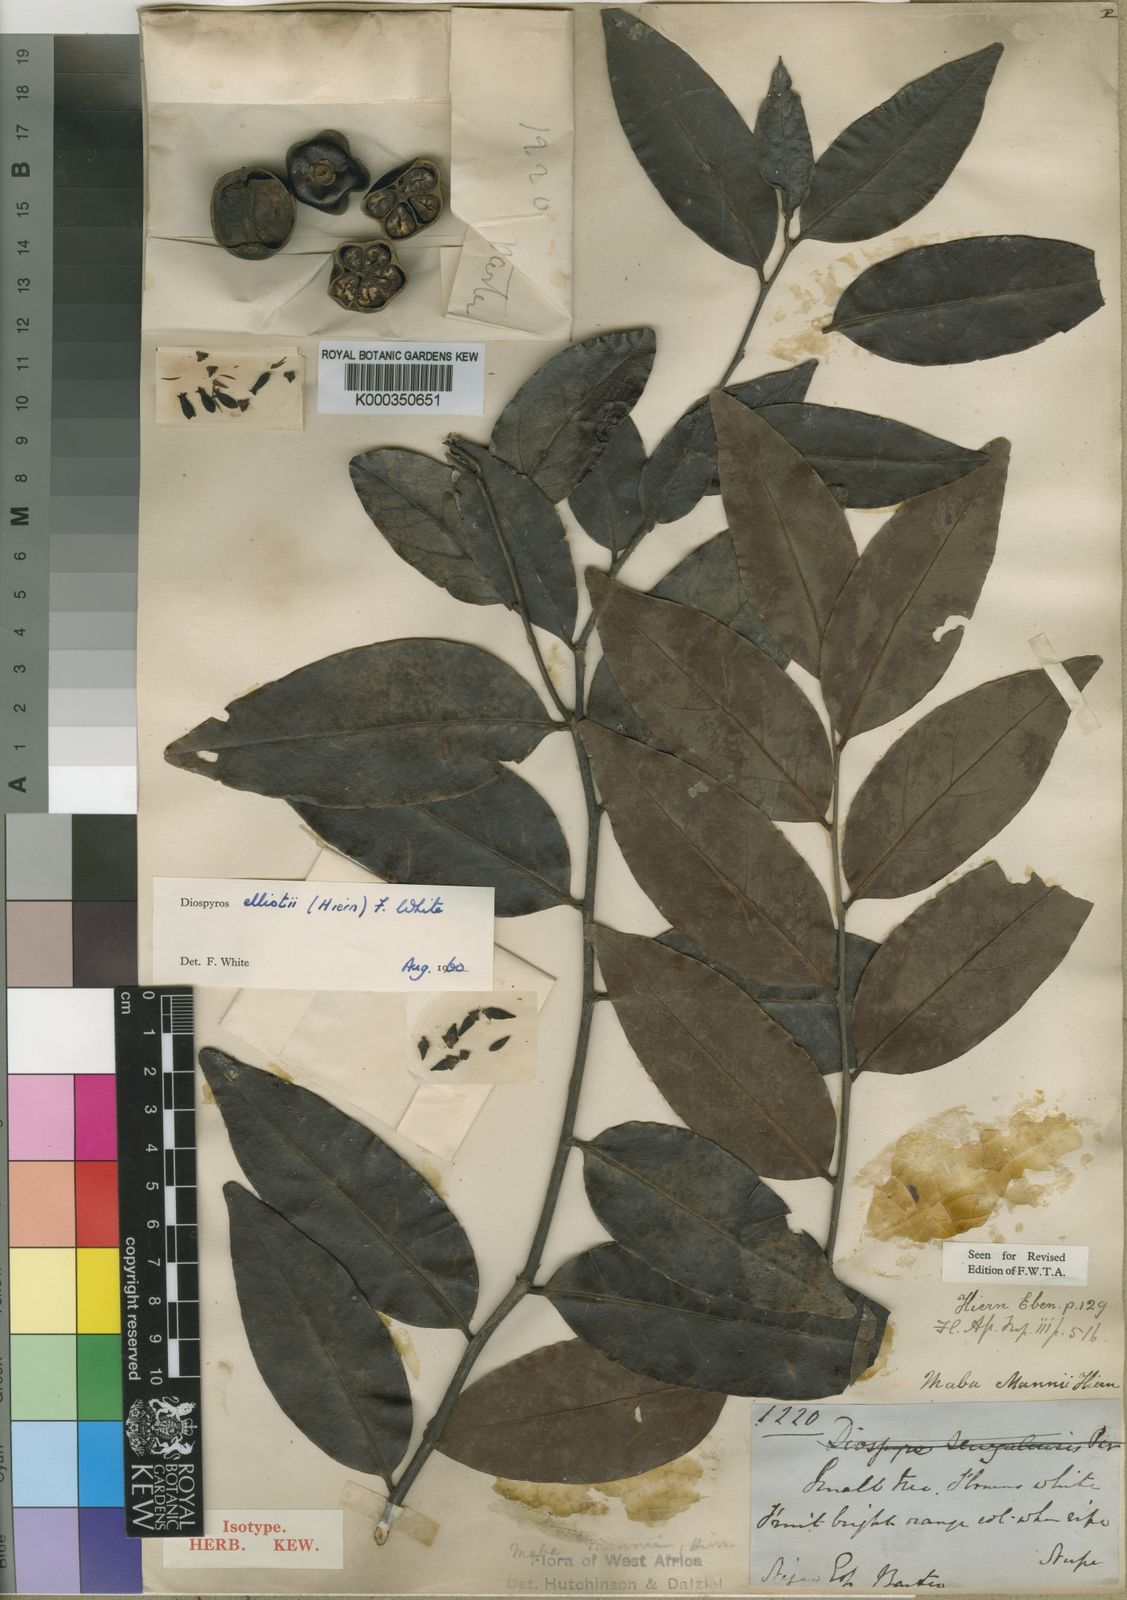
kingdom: Plantae
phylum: Tracheophyta
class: Magnoliopsida
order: Ericales
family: Ebenaceae
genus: Diospyros
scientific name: Diospyros elliotii
